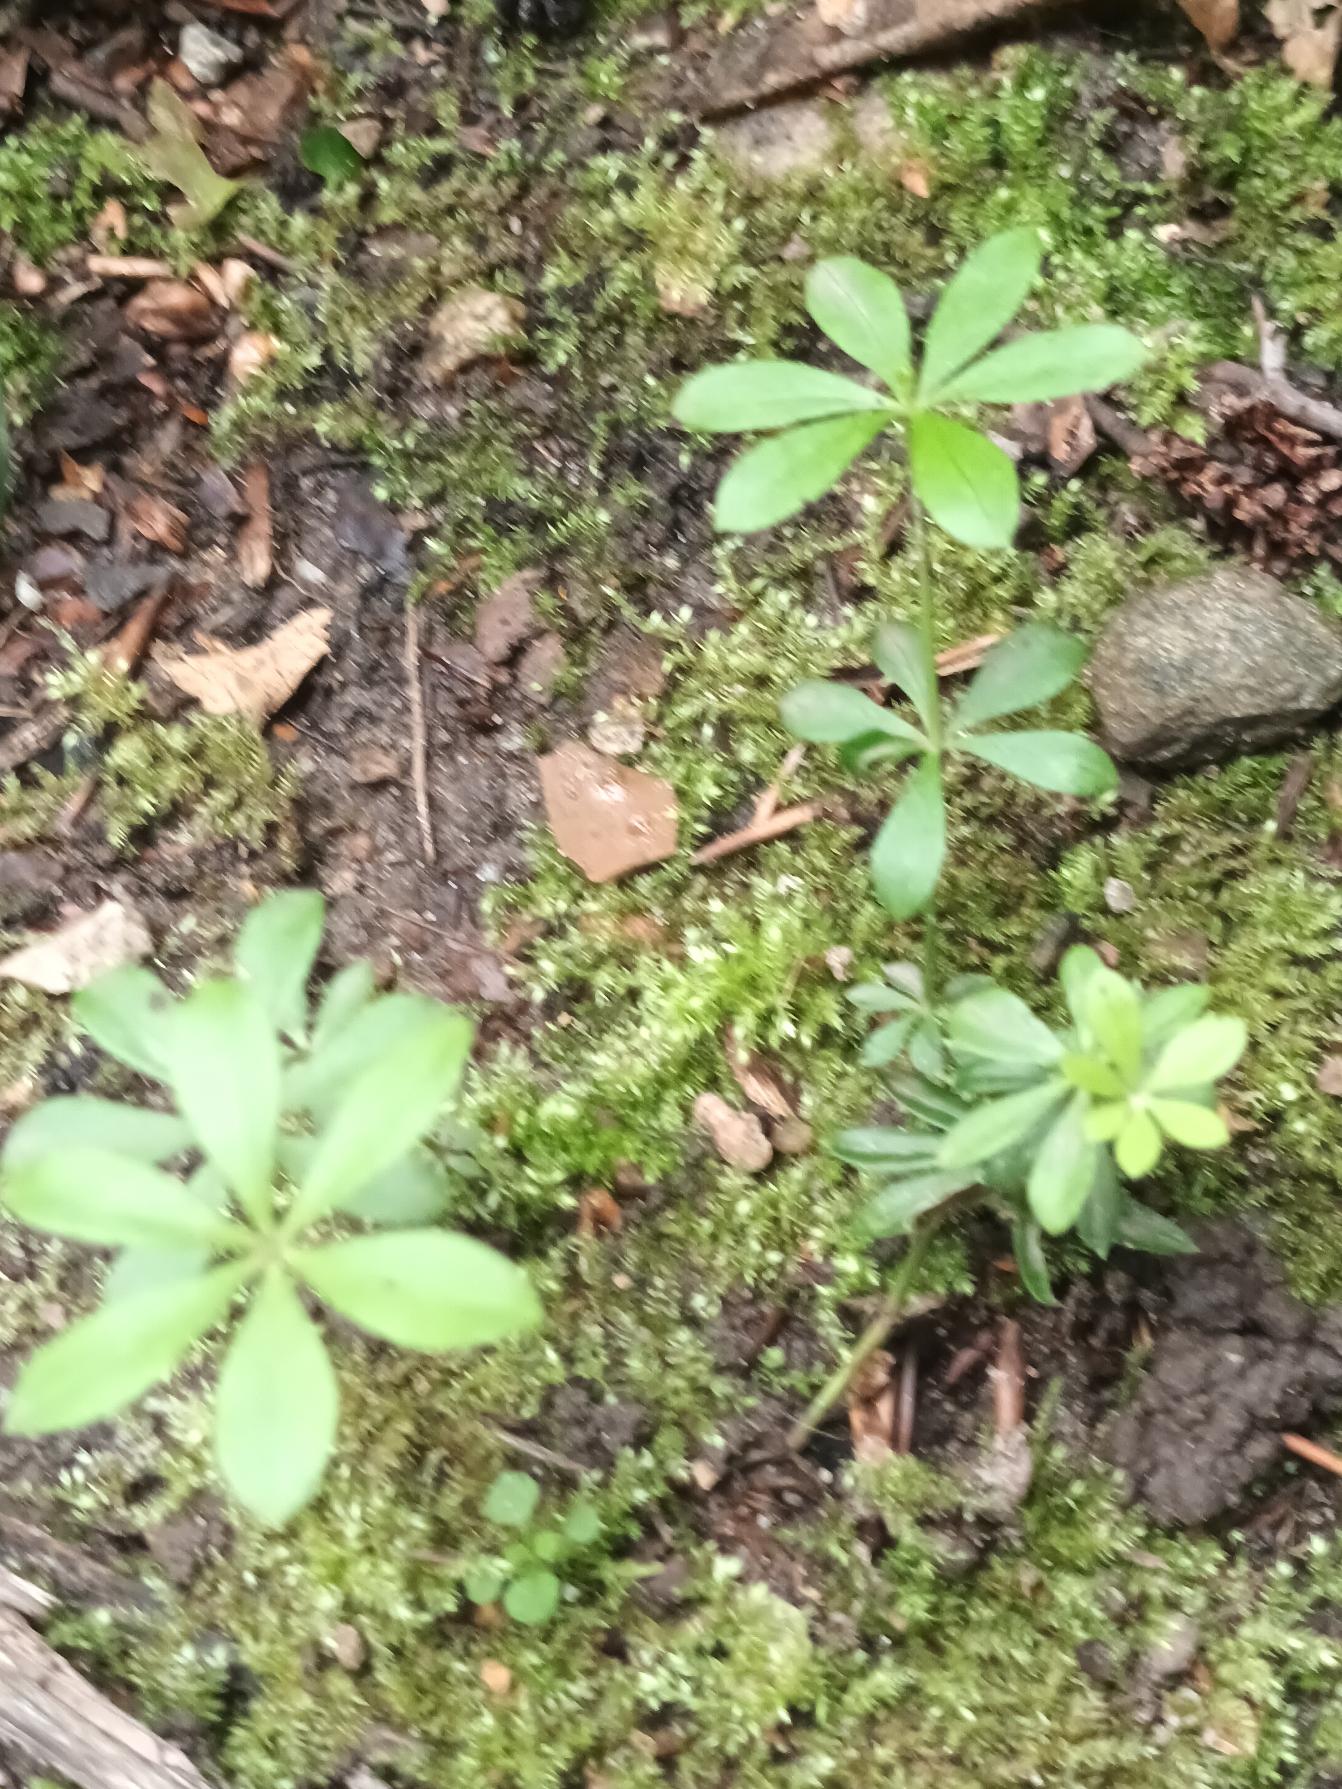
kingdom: Plantae
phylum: Tracheophyta
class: Magnoliopsida
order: Gentianales
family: Rubiaceae
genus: Galium
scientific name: Galium odoratum
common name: Skovmærke
